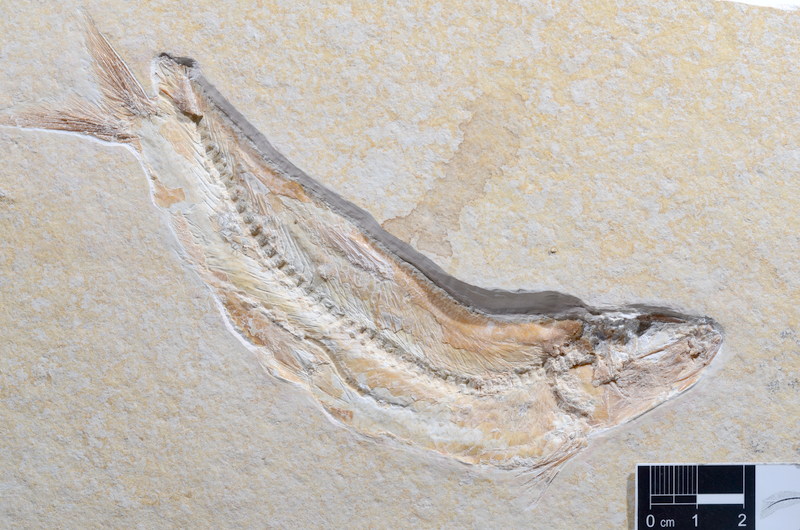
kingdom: Animalia
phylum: Chordata
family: Ascalaboidae
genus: Tharsis
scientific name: Tharsis dubius
